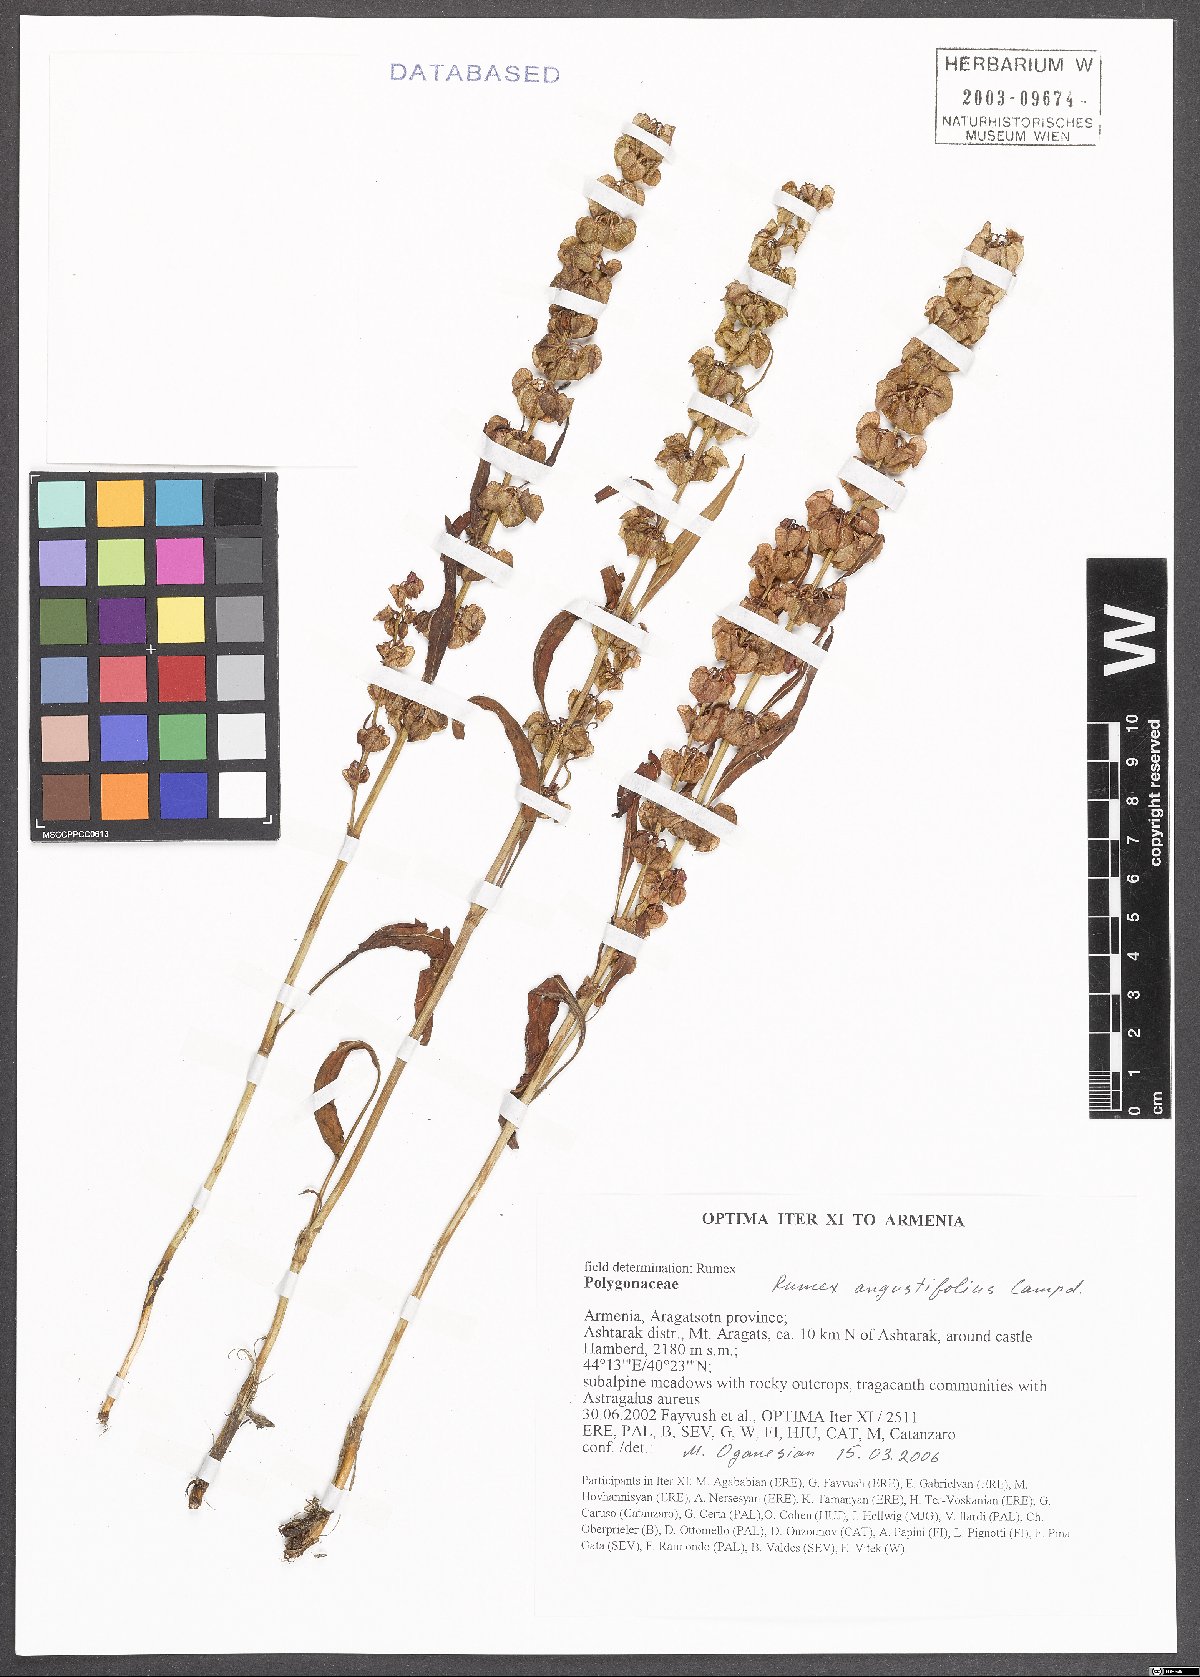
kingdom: Plantae
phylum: Tracheophyta
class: Magnoliopsida
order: Caryophyllales
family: Polygonaceae
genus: Rumex
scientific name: Rumex angustifolius
